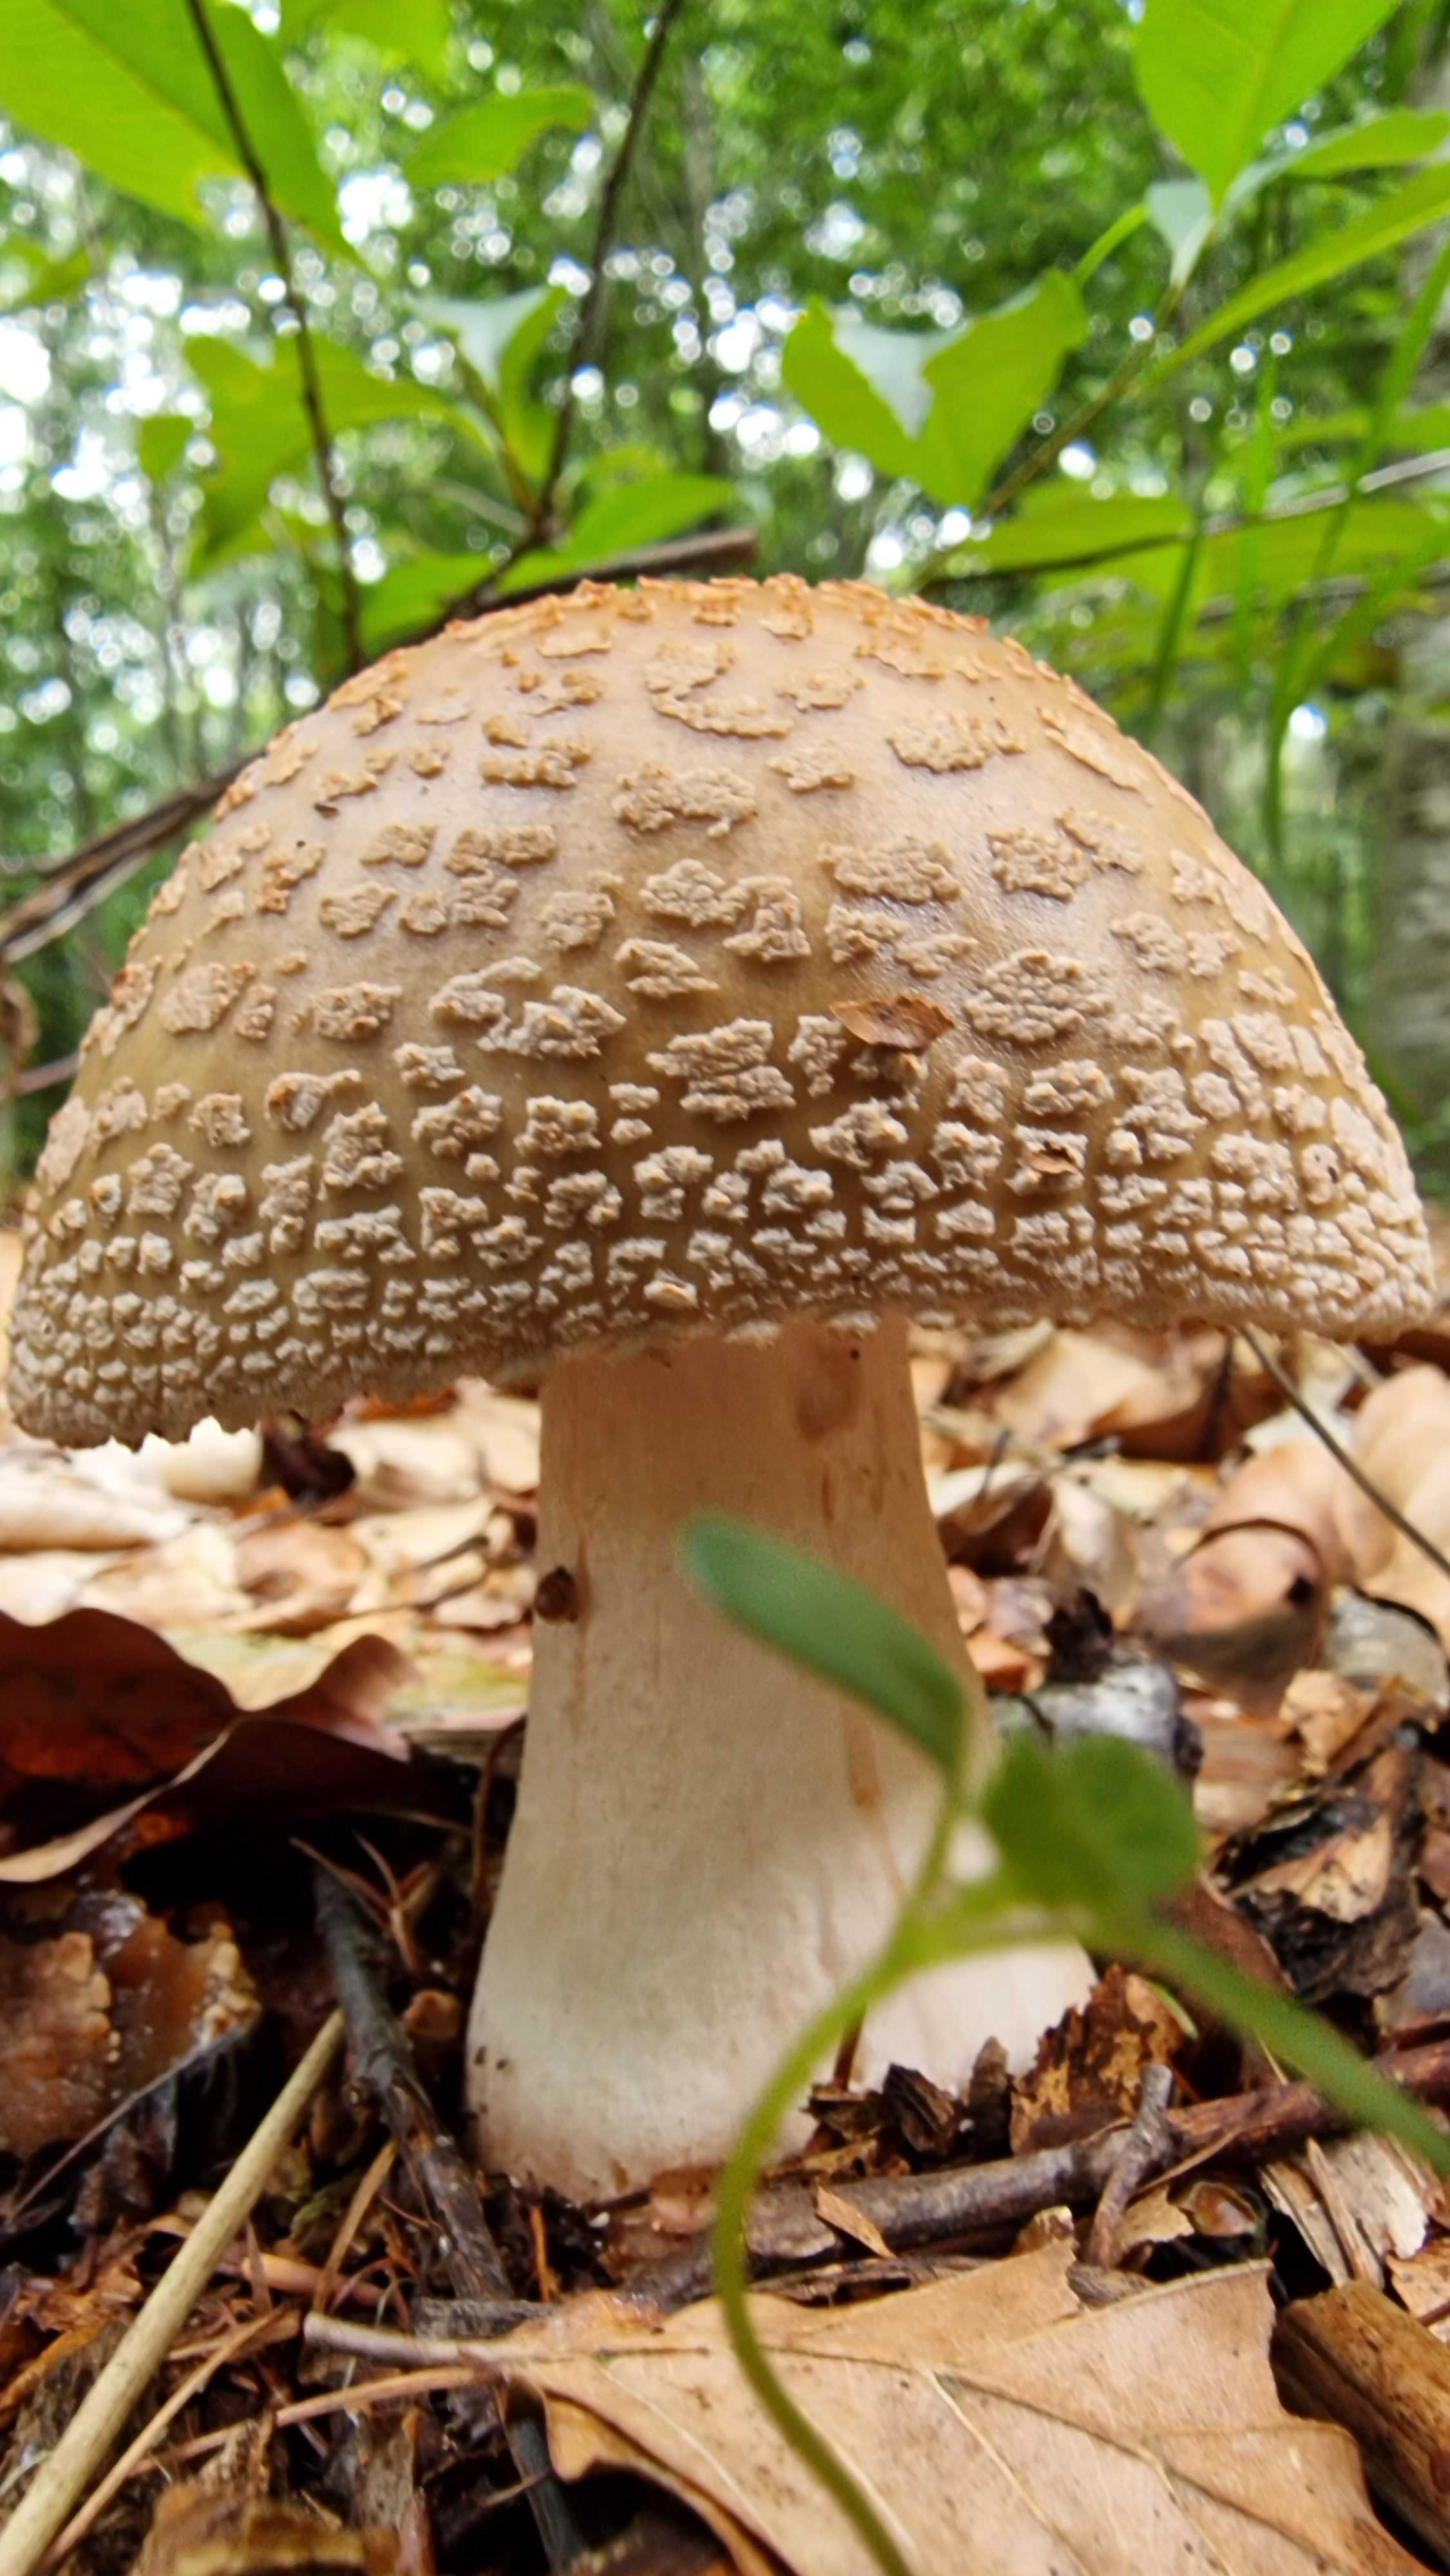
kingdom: Fungi
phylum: Basidiomycota
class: Agaricomycetes
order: Agaricales
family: Amanitaceae
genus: Amanita
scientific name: Amanita
